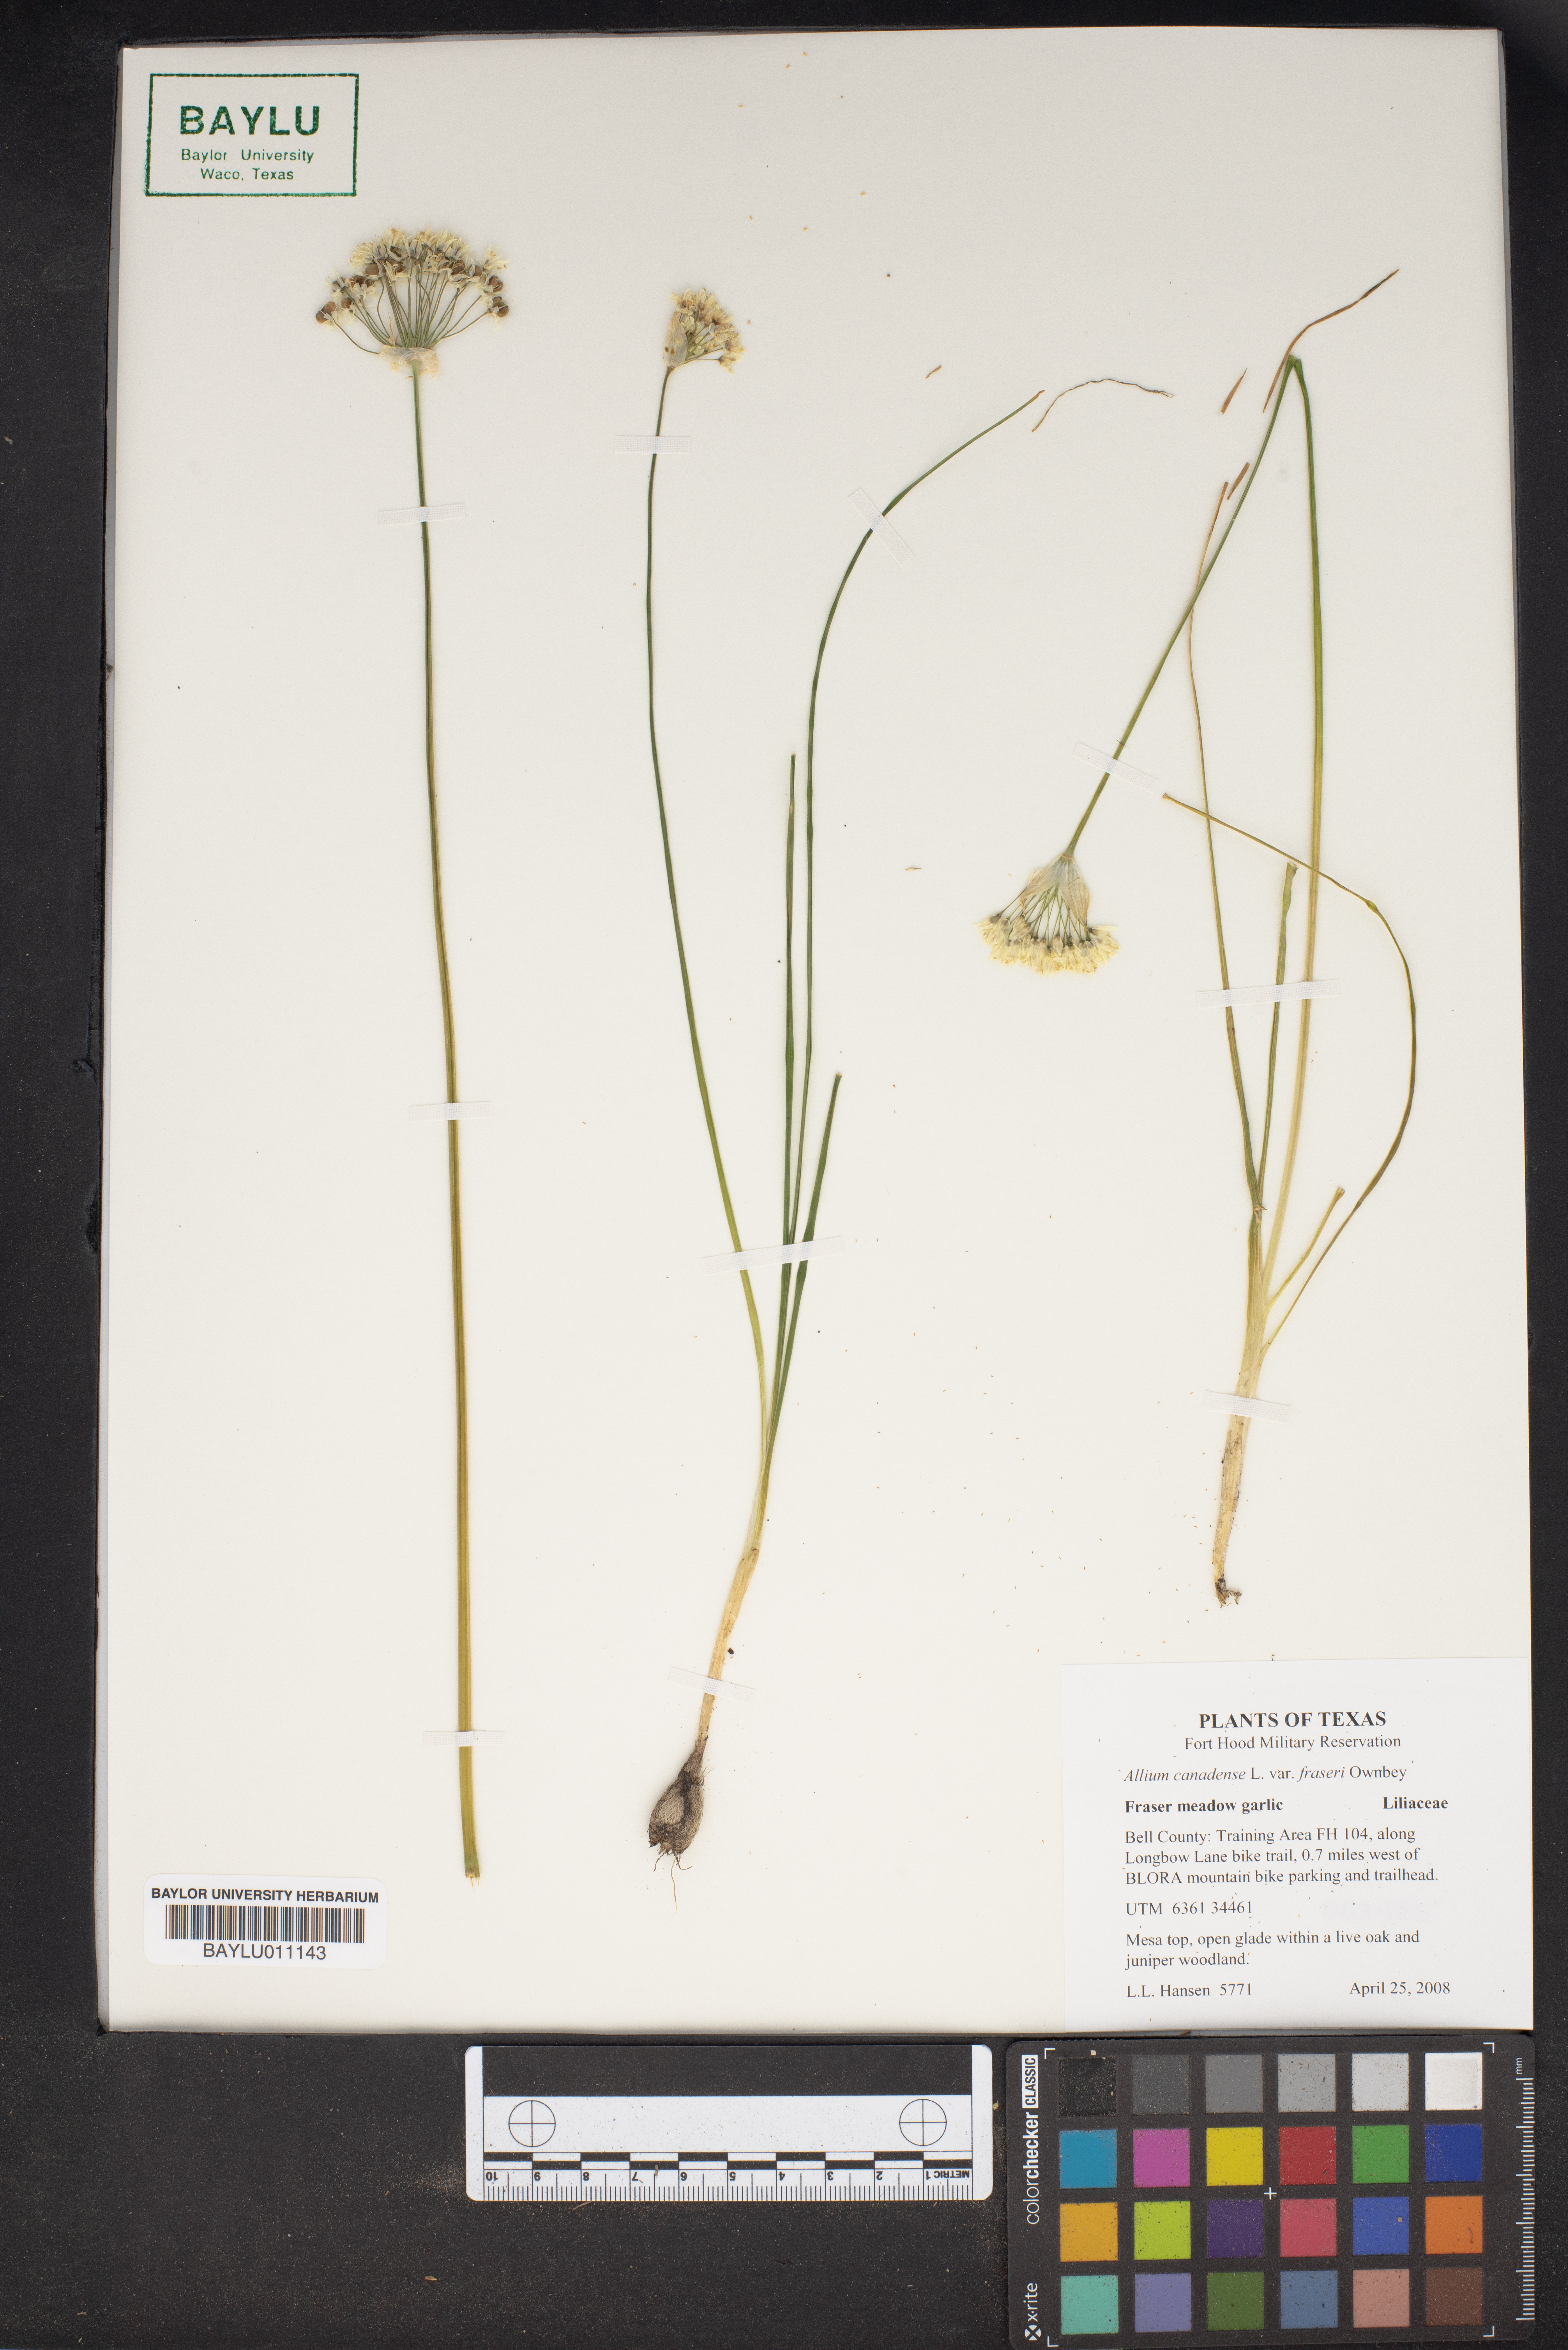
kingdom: Plantae
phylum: Tracheophyta
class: Liliopsida
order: Asparagales
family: Amaryllidaceae
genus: Allium
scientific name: Allium fraseri
